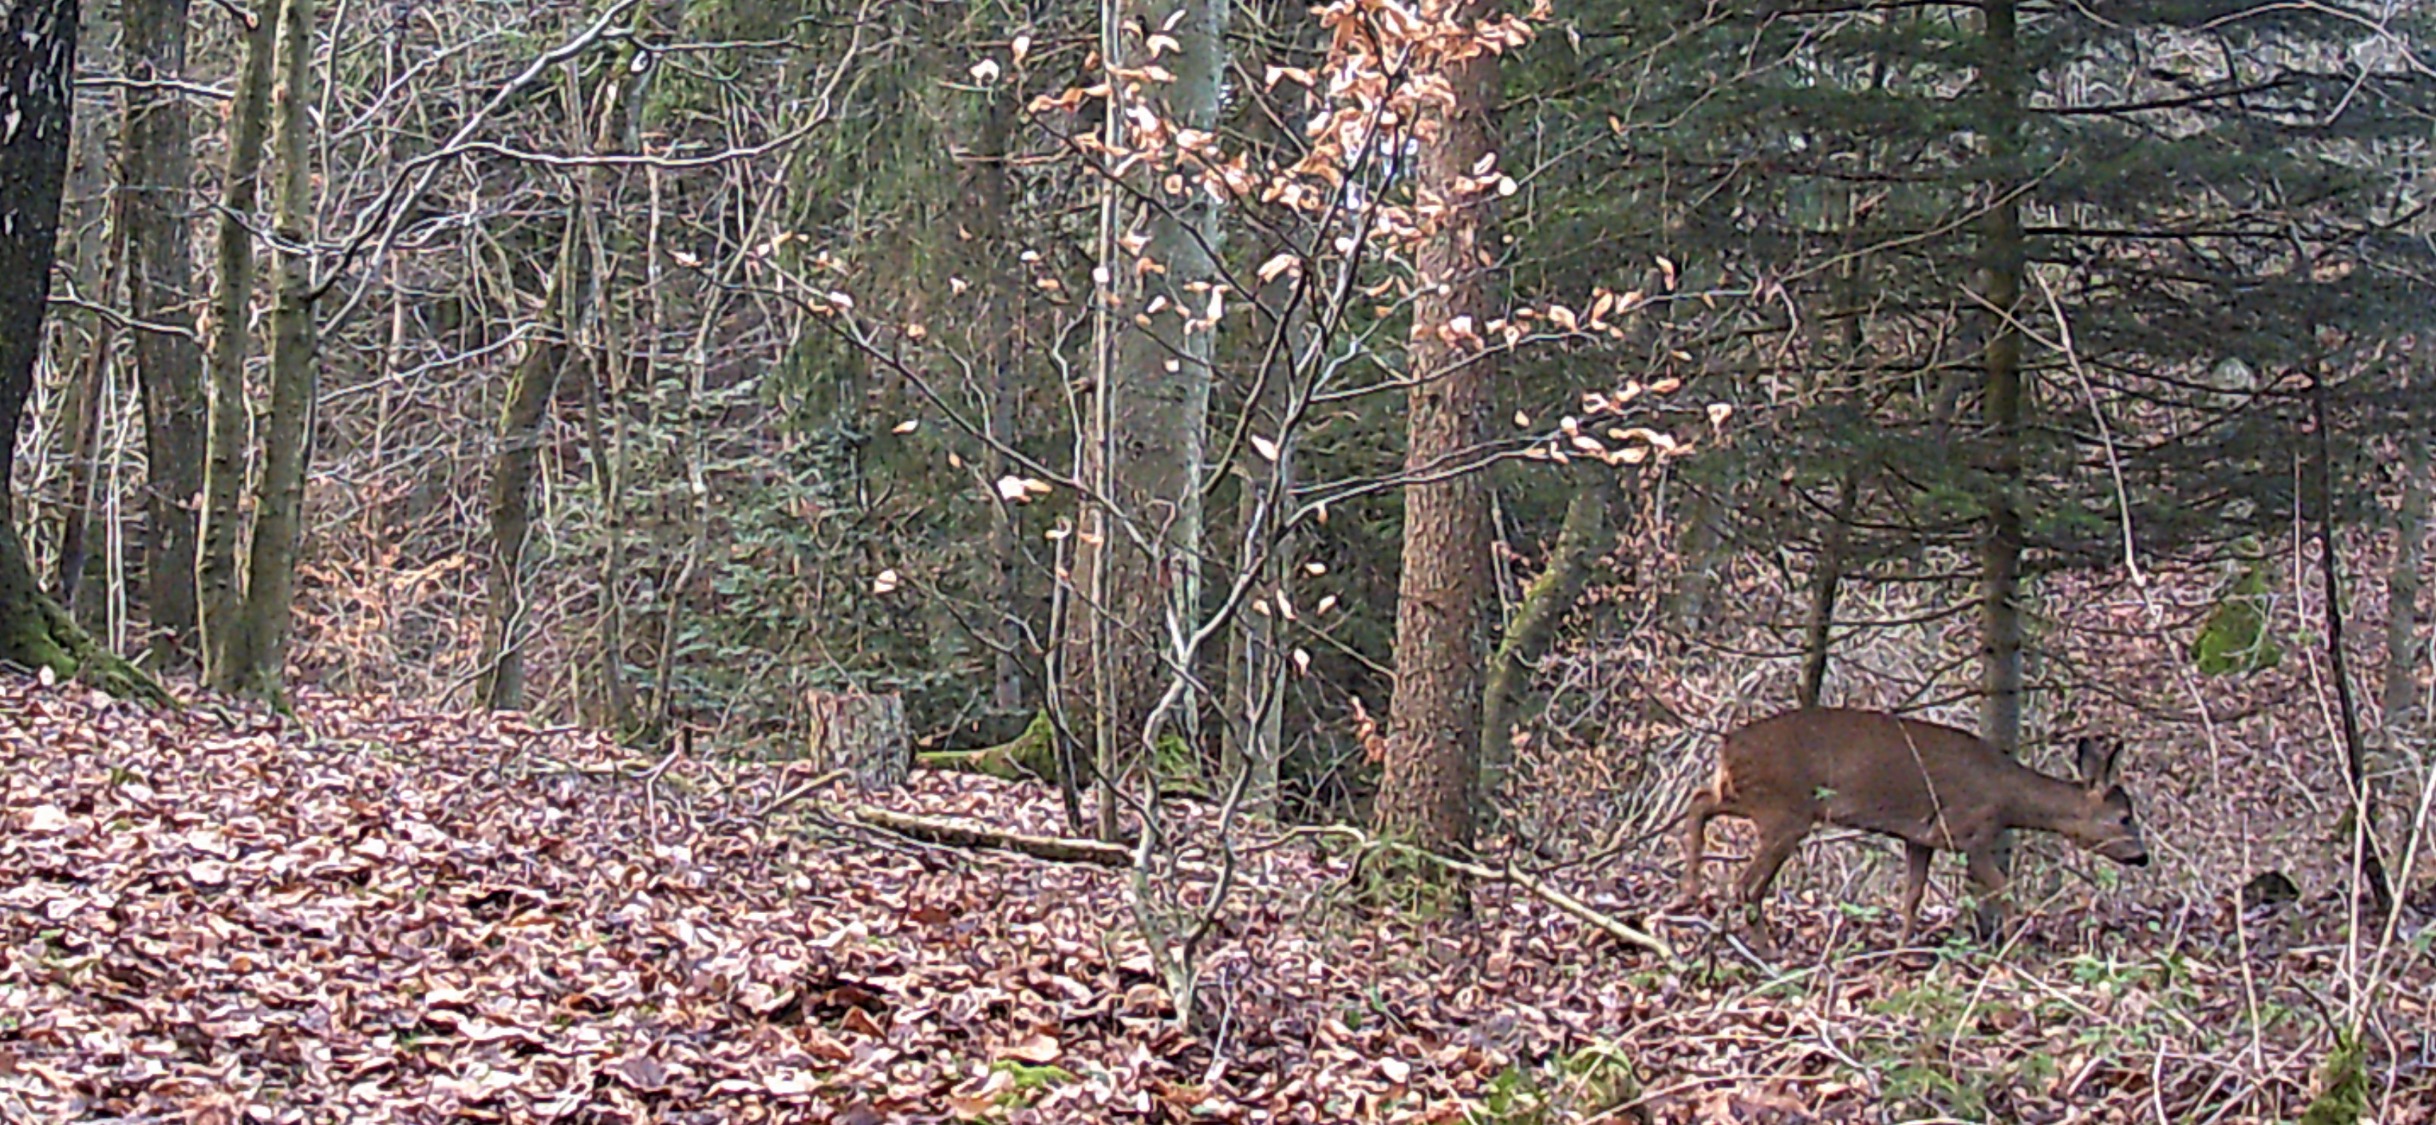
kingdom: Animalia
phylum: Chordata
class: Mammalia
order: Artiodactyla
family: Cervidae
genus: Capreolus
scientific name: Capreolus capreolus
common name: Rådyr
